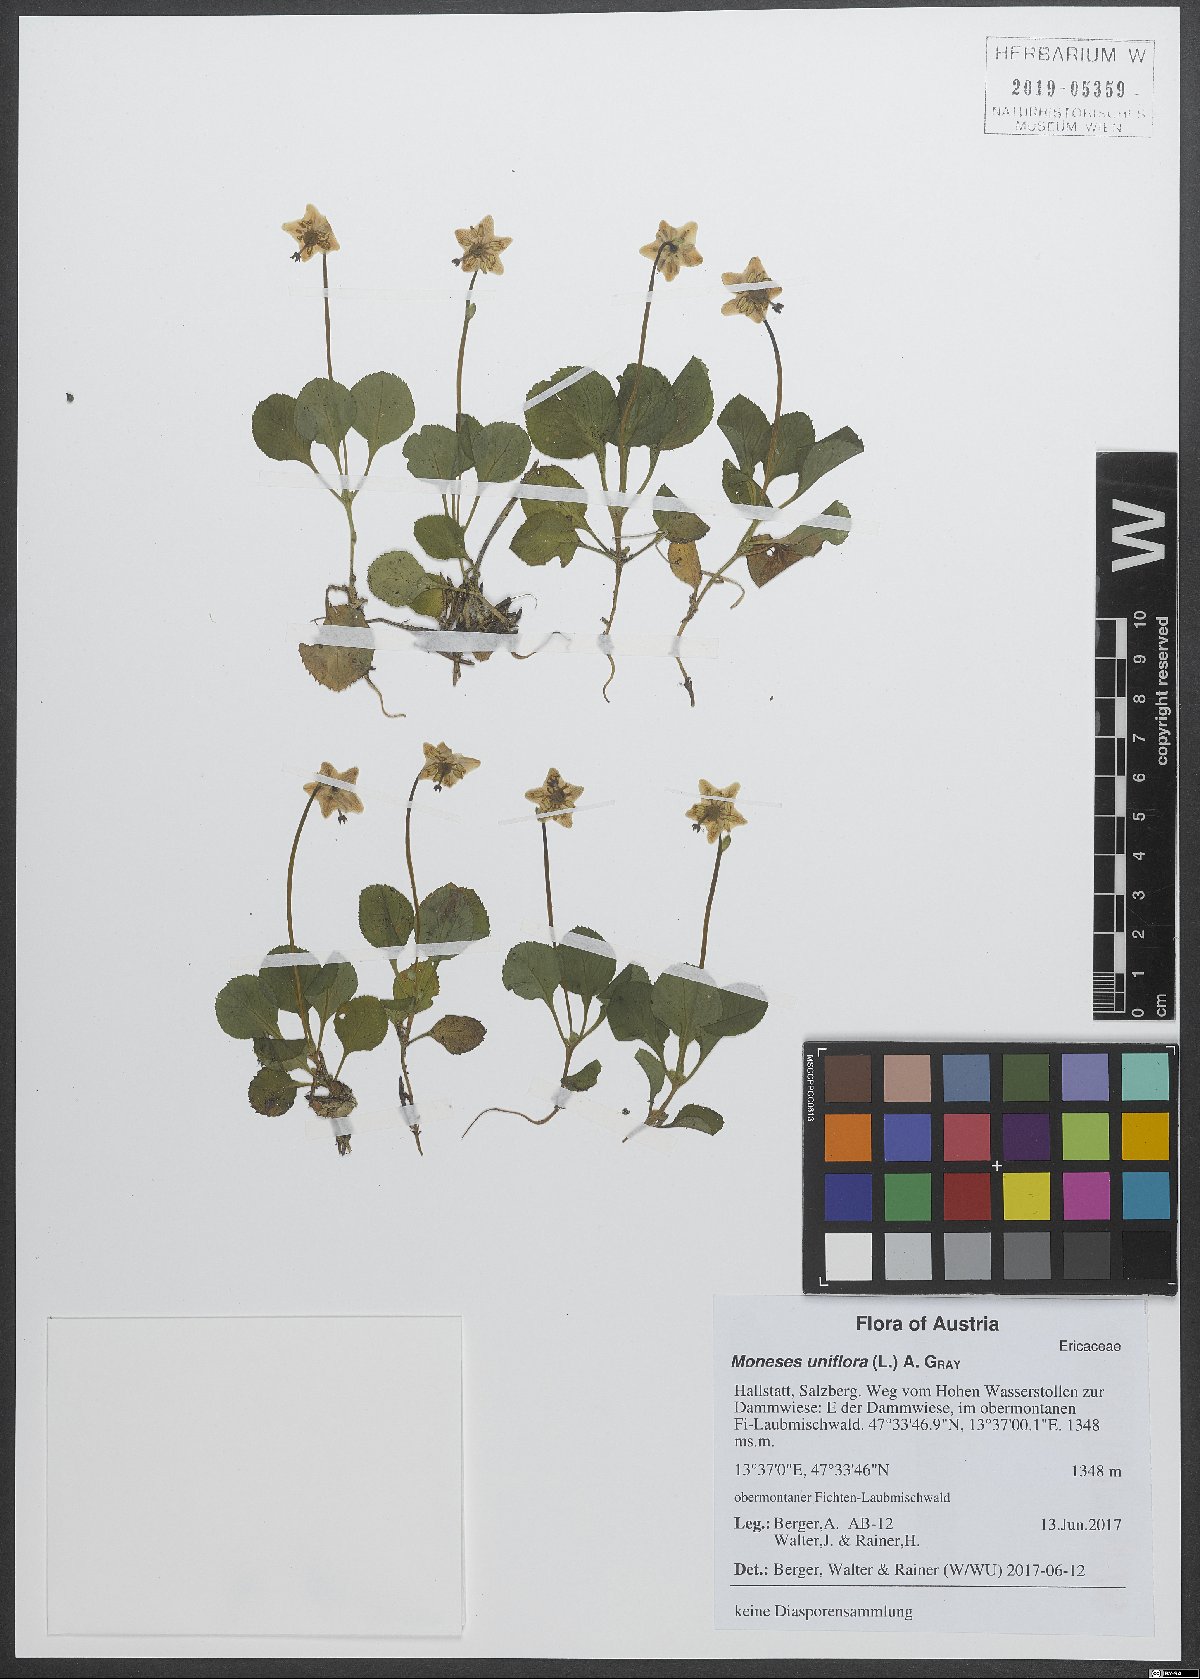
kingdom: Plantae
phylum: Tracheophyta
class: Magnoliopsida
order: Ericales
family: Ericaceae
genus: Moneses
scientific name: Moneses uniflora
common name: One-flowered wintergreen
